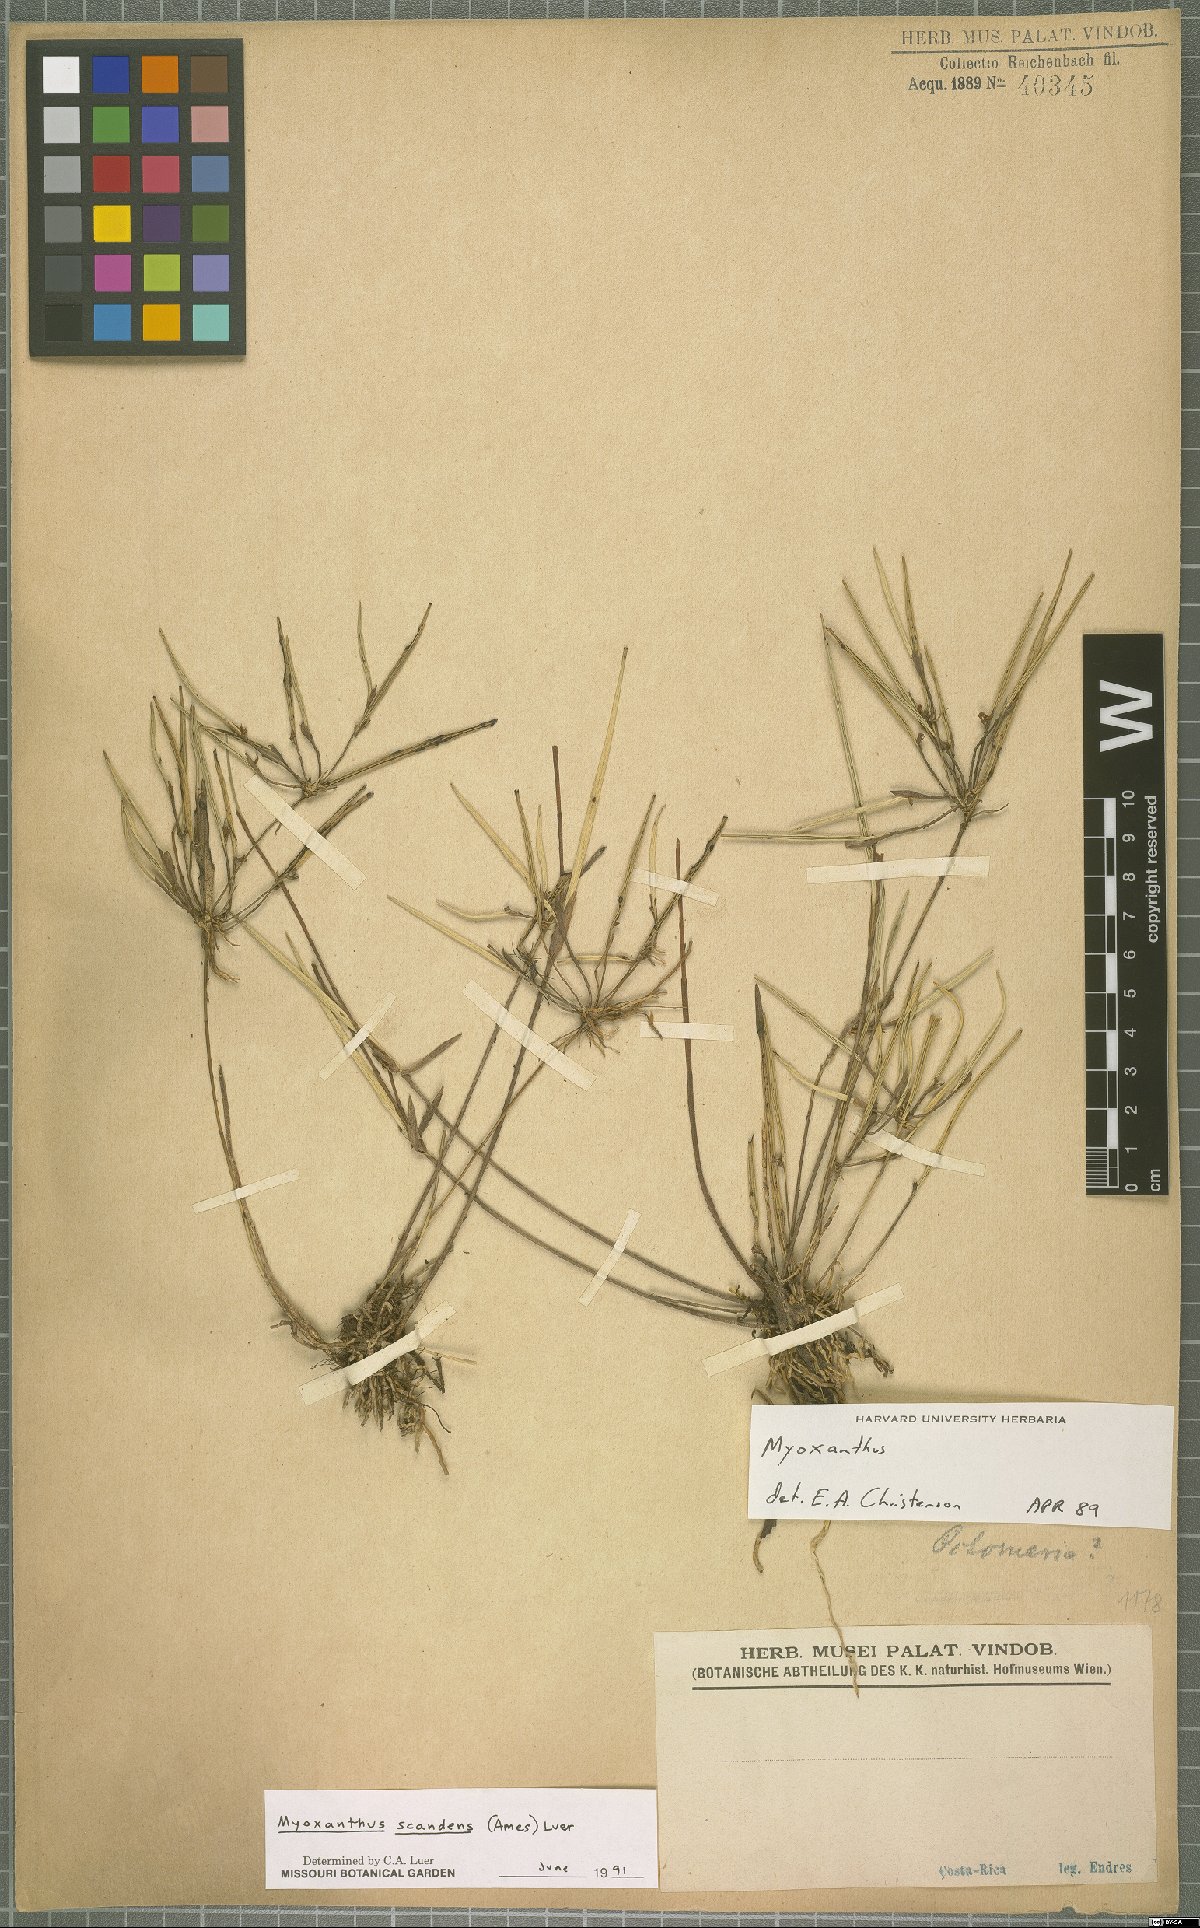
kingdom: Plantae
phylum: Tracheophyta
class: Liliopsida
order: Asparagales
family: Orchidaceae
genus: Myoxanthus
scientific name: Myoxanthus scandens
